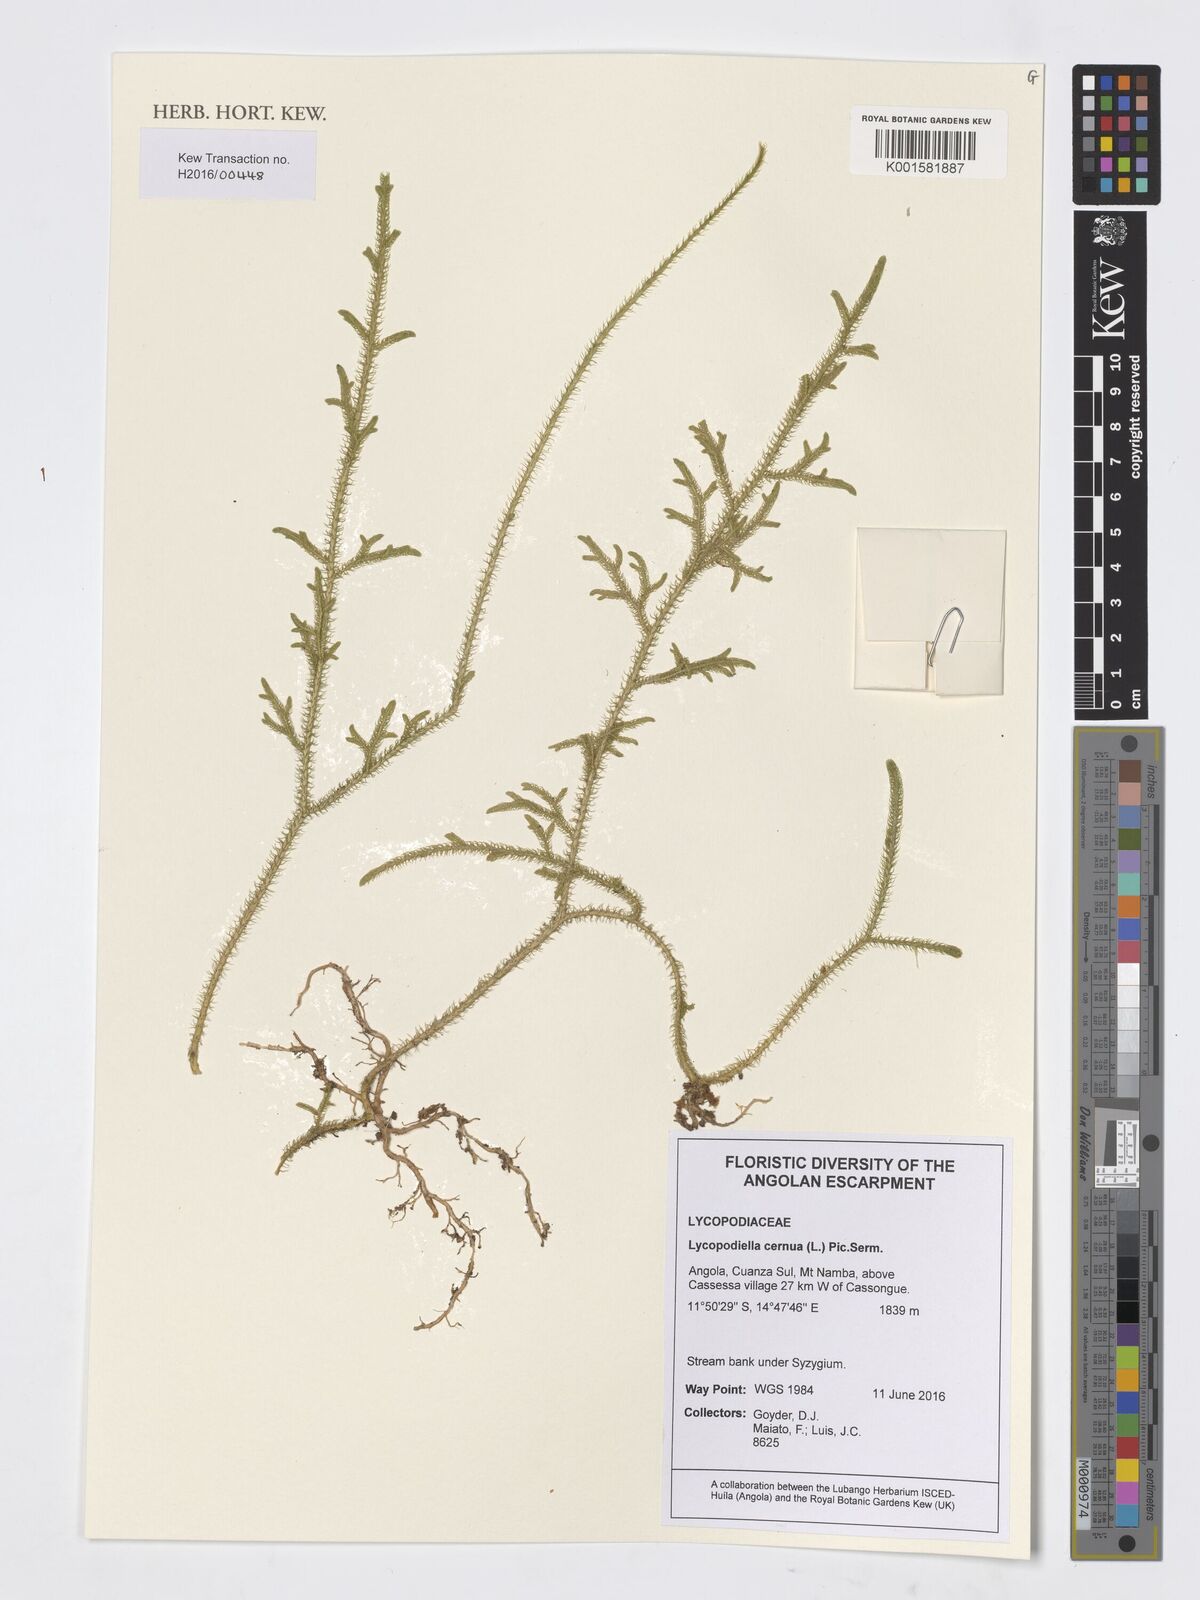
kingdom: Plantae
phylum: Tracheophyta
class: Lycopodiopsida
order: Lycopodiales
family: Lycopodiaceae
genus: Palhinhaea
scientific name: Palhinhaea cernua
